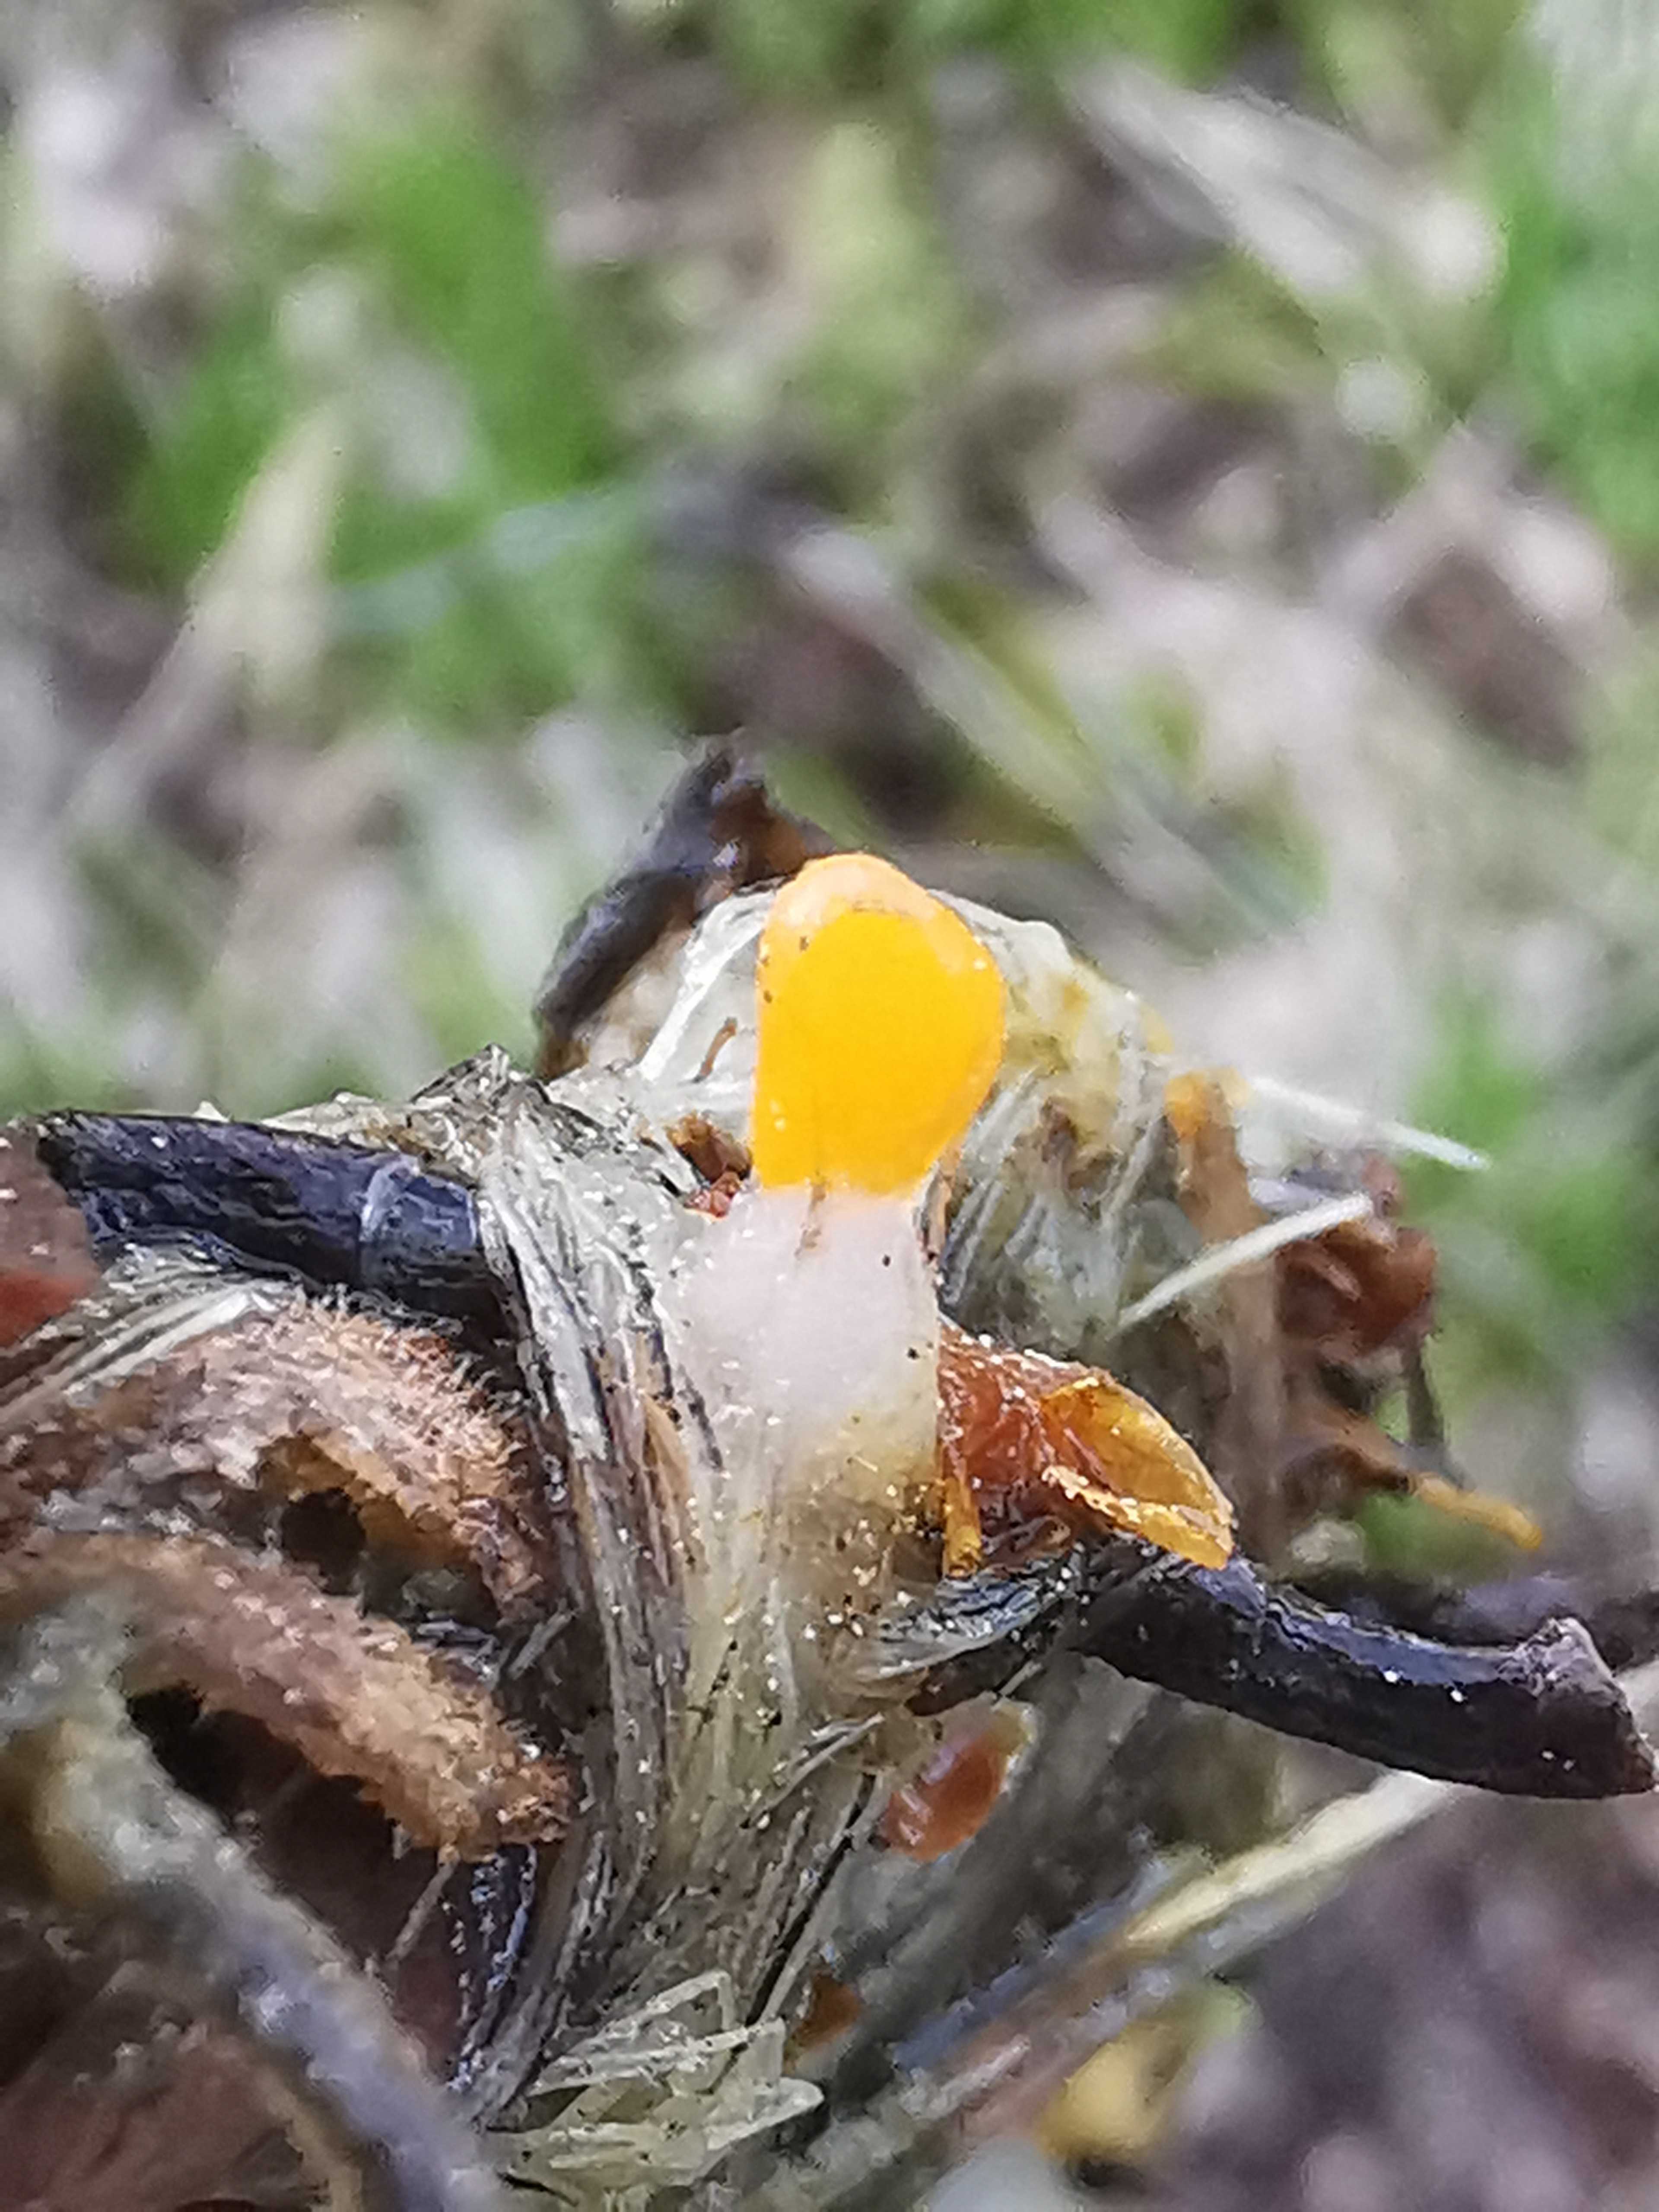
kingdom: Fungi
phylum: Ascomycota
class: Leotiomycetes
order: Helotiales
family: Cenangiaceae
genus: Mitrula
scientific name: Mitrula paludosa
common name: gul nøkketunge
